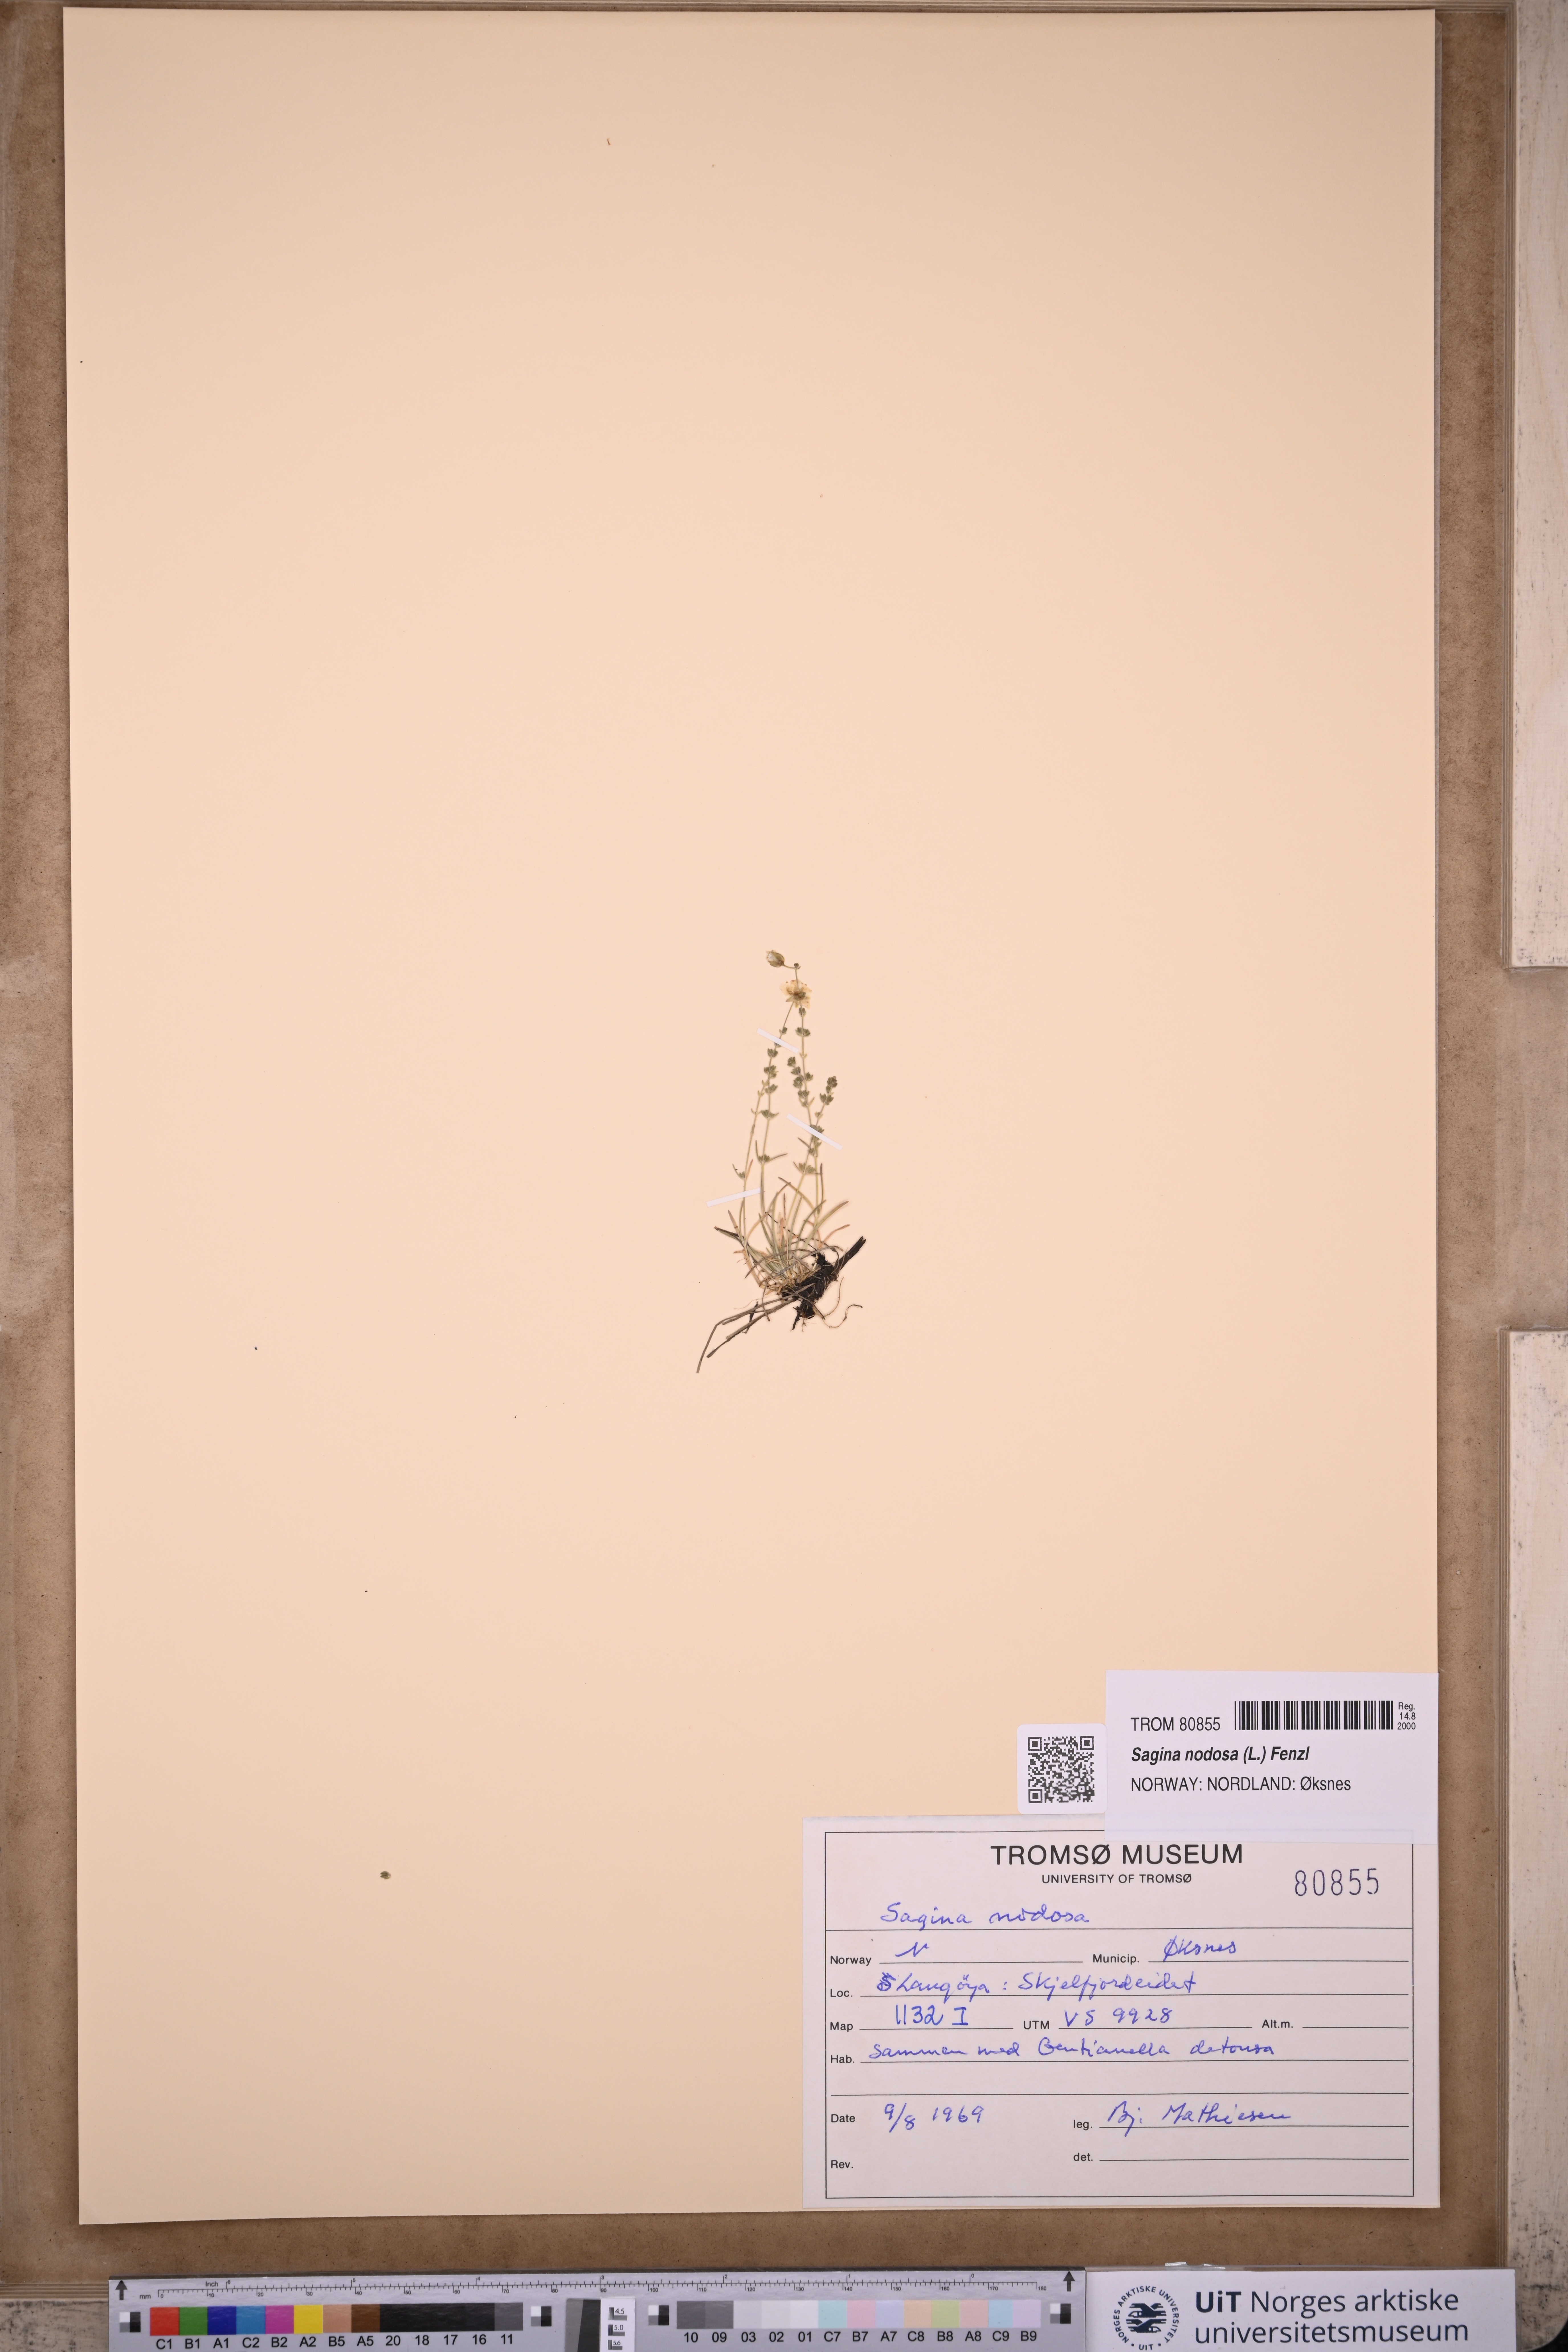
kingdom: Plantae
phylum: Tracheophyta
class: Magnoliopsida
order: Caryophyllales
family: Caryophyllaceae
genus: Sagina
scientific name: Sagina nodosa
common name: Knotted pearlwort
